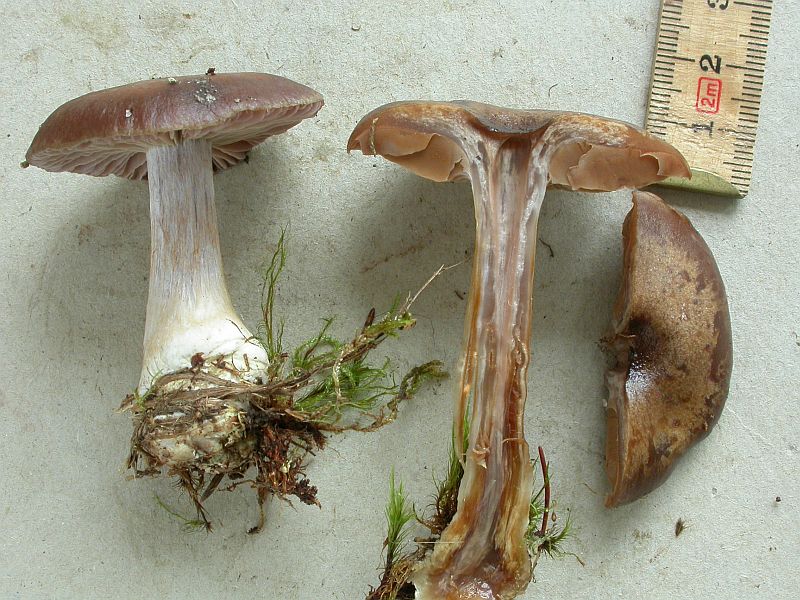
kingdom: Fungi
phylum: Basidiomycota
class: Agaricomycetes
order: Agaricales
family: Cortinariaceae
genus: Thaxterogaster
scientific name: Thaxterogaster scaurus
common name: sump-slørhat
